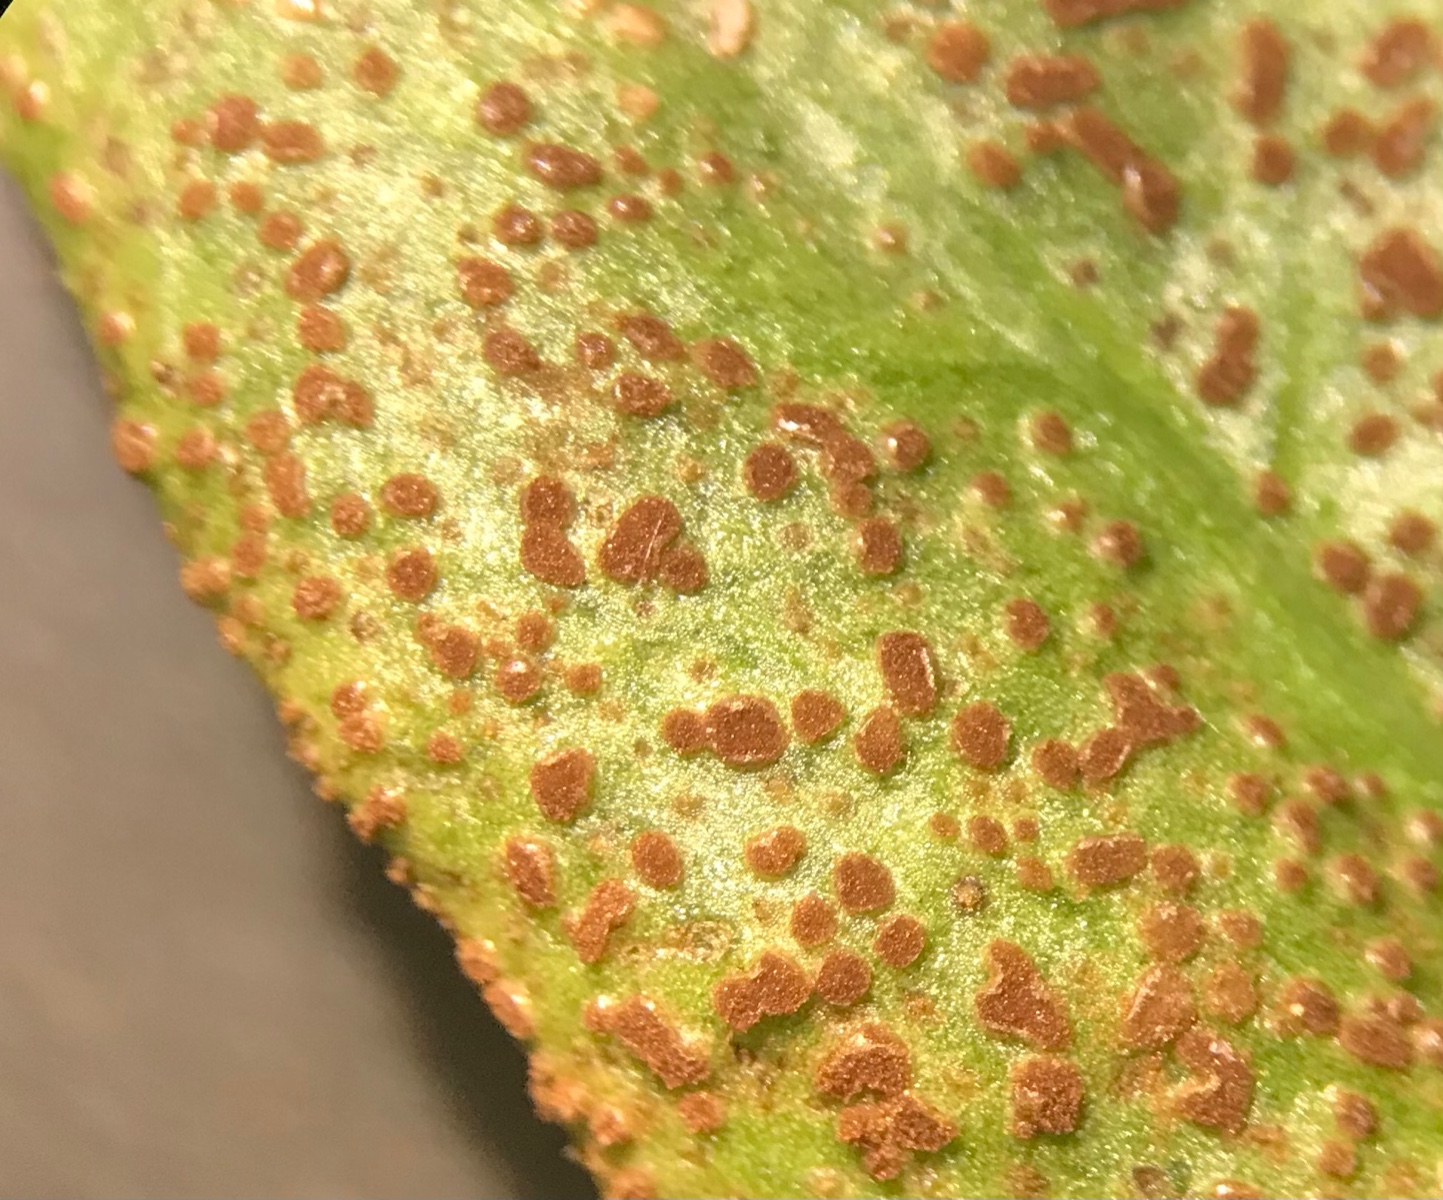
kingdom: Fungi
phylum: Basidiomycota
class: Pucciniomycetes
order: Pucciniales
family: Pucciniaceae
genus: Puccinia
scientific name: Puccinia vincae
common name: Periwinkle rust
